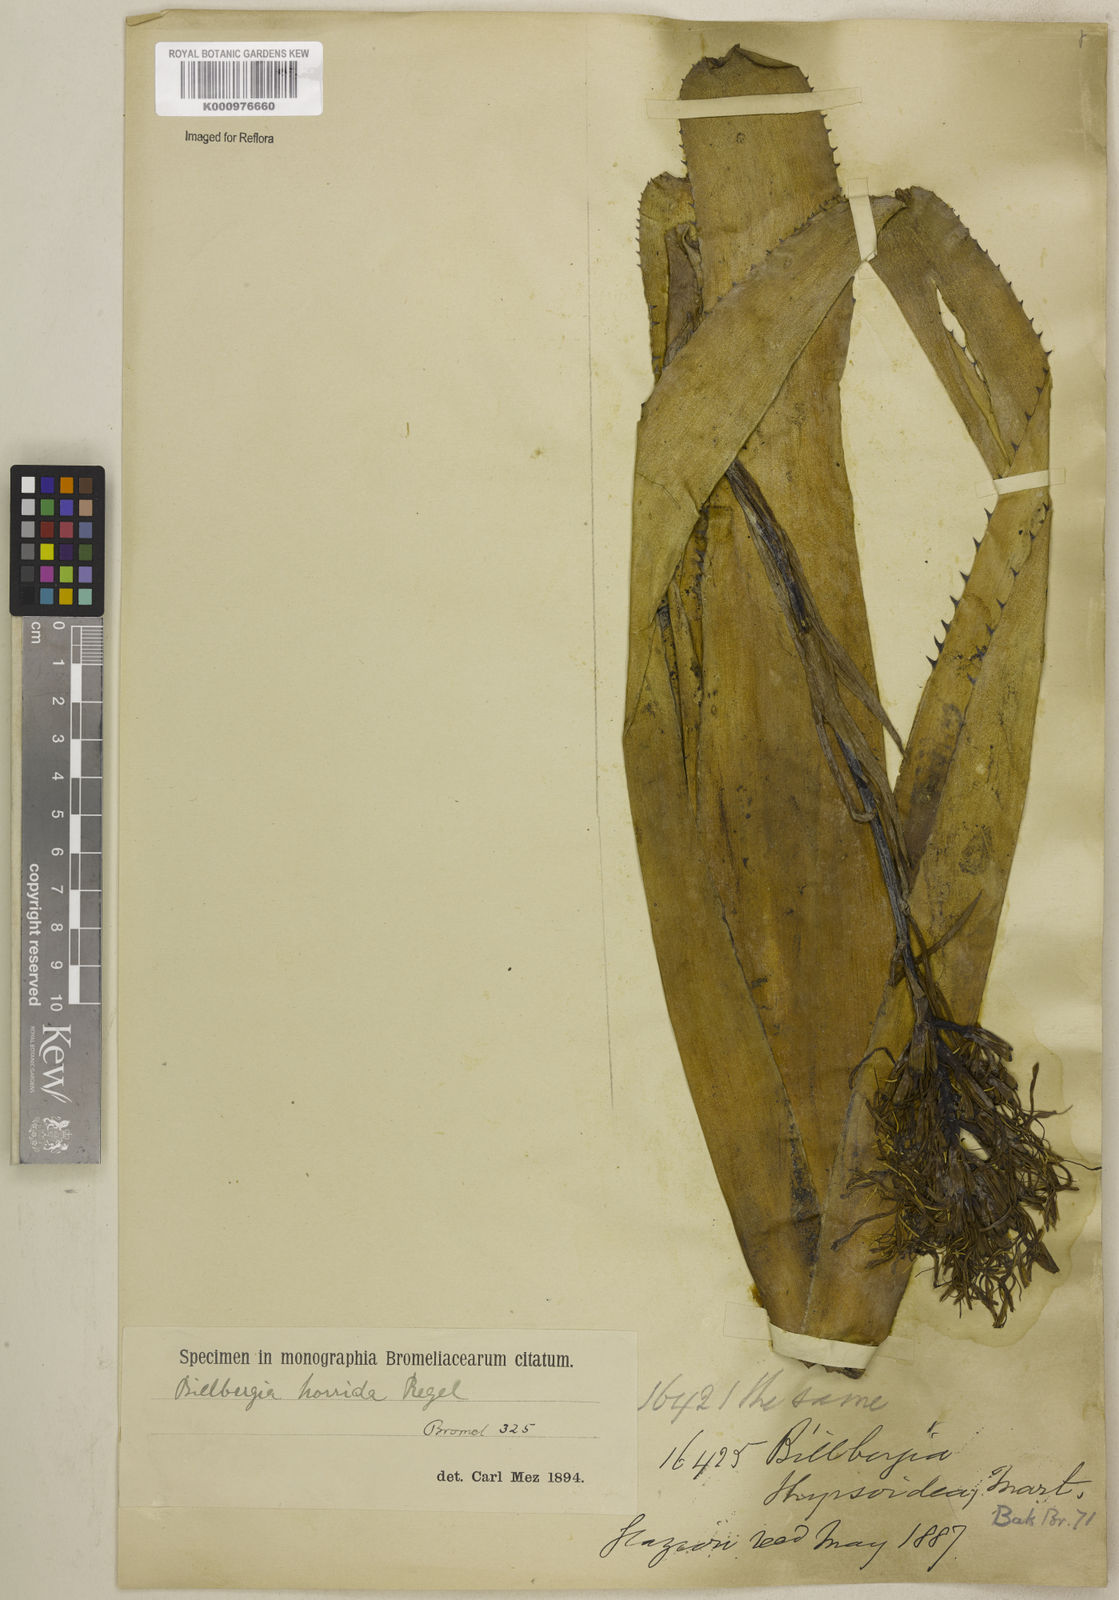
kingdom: Plantae
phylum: Tracheophyta
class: Liliopsida
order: Poales
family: Bromeliaceae
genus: Billbergia
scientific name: Billbergia horrida
